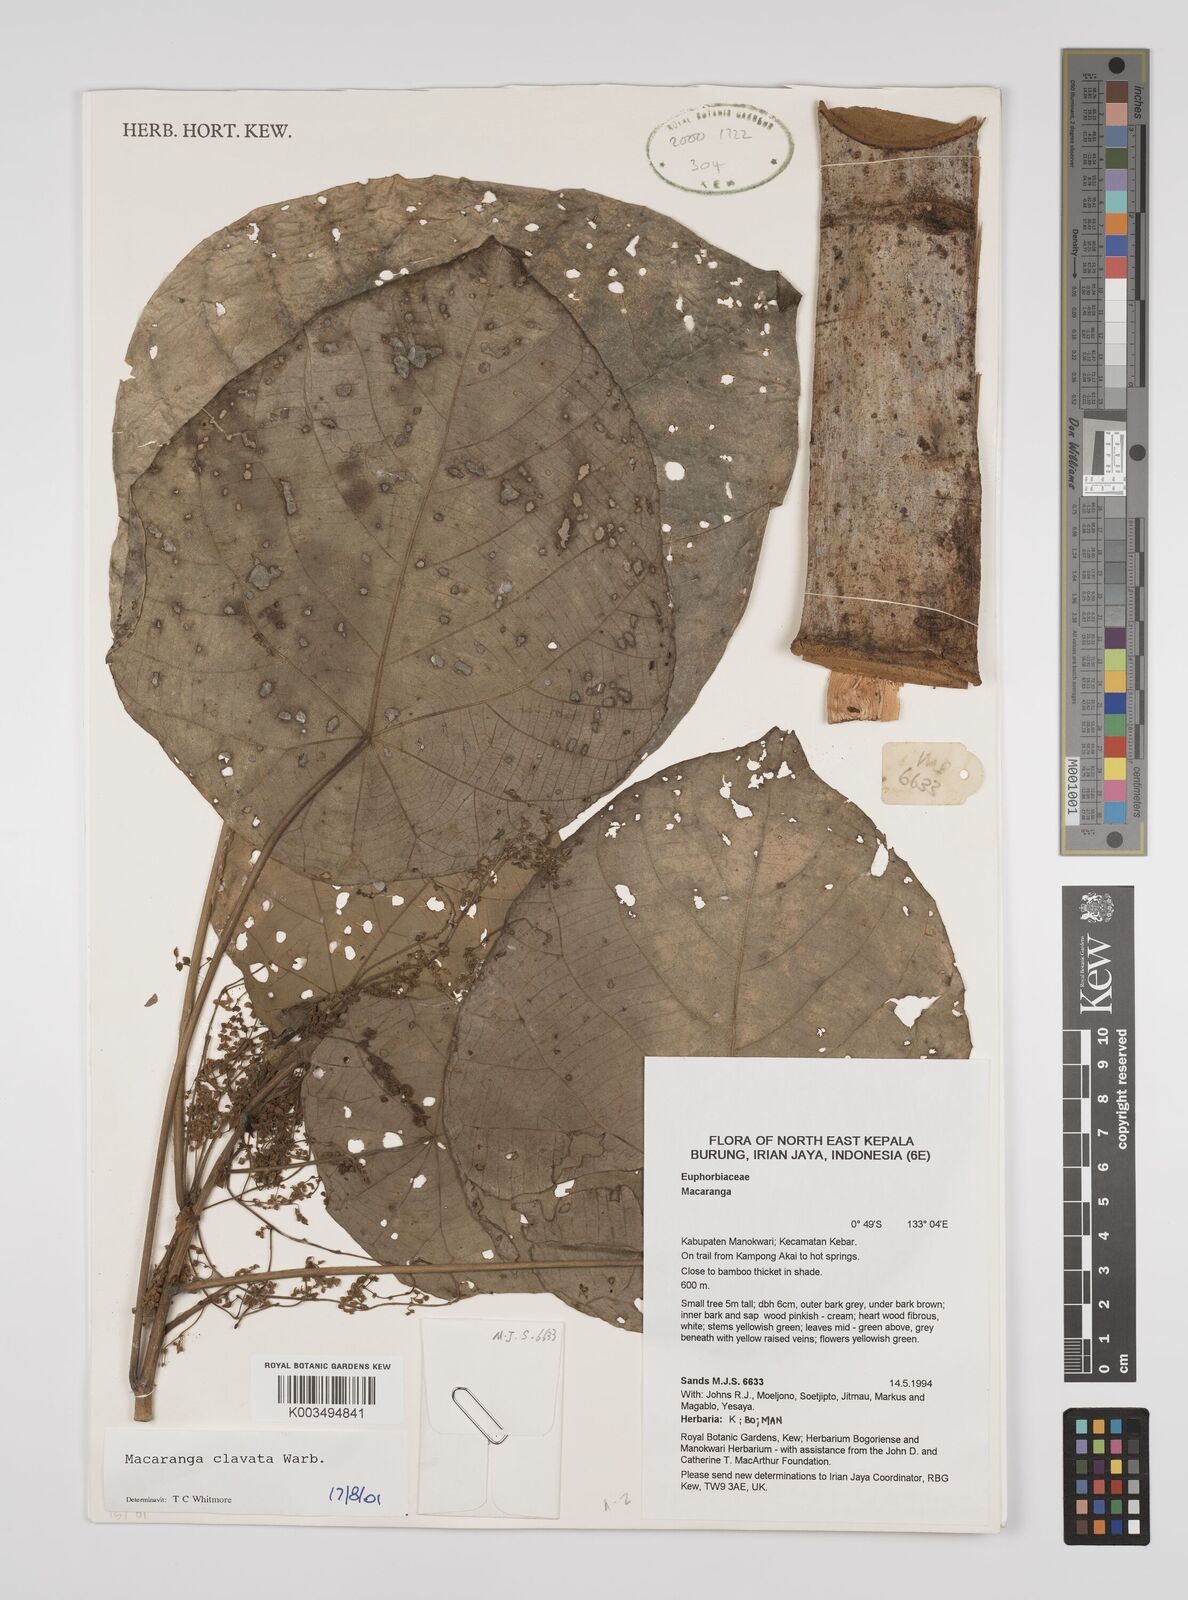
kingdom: Plantae
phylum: Tracheophyta
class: Magnoliopsida
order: Malpighiales
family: Euphorbiaceae
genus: Macaranga
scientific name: Macaranga clavata
